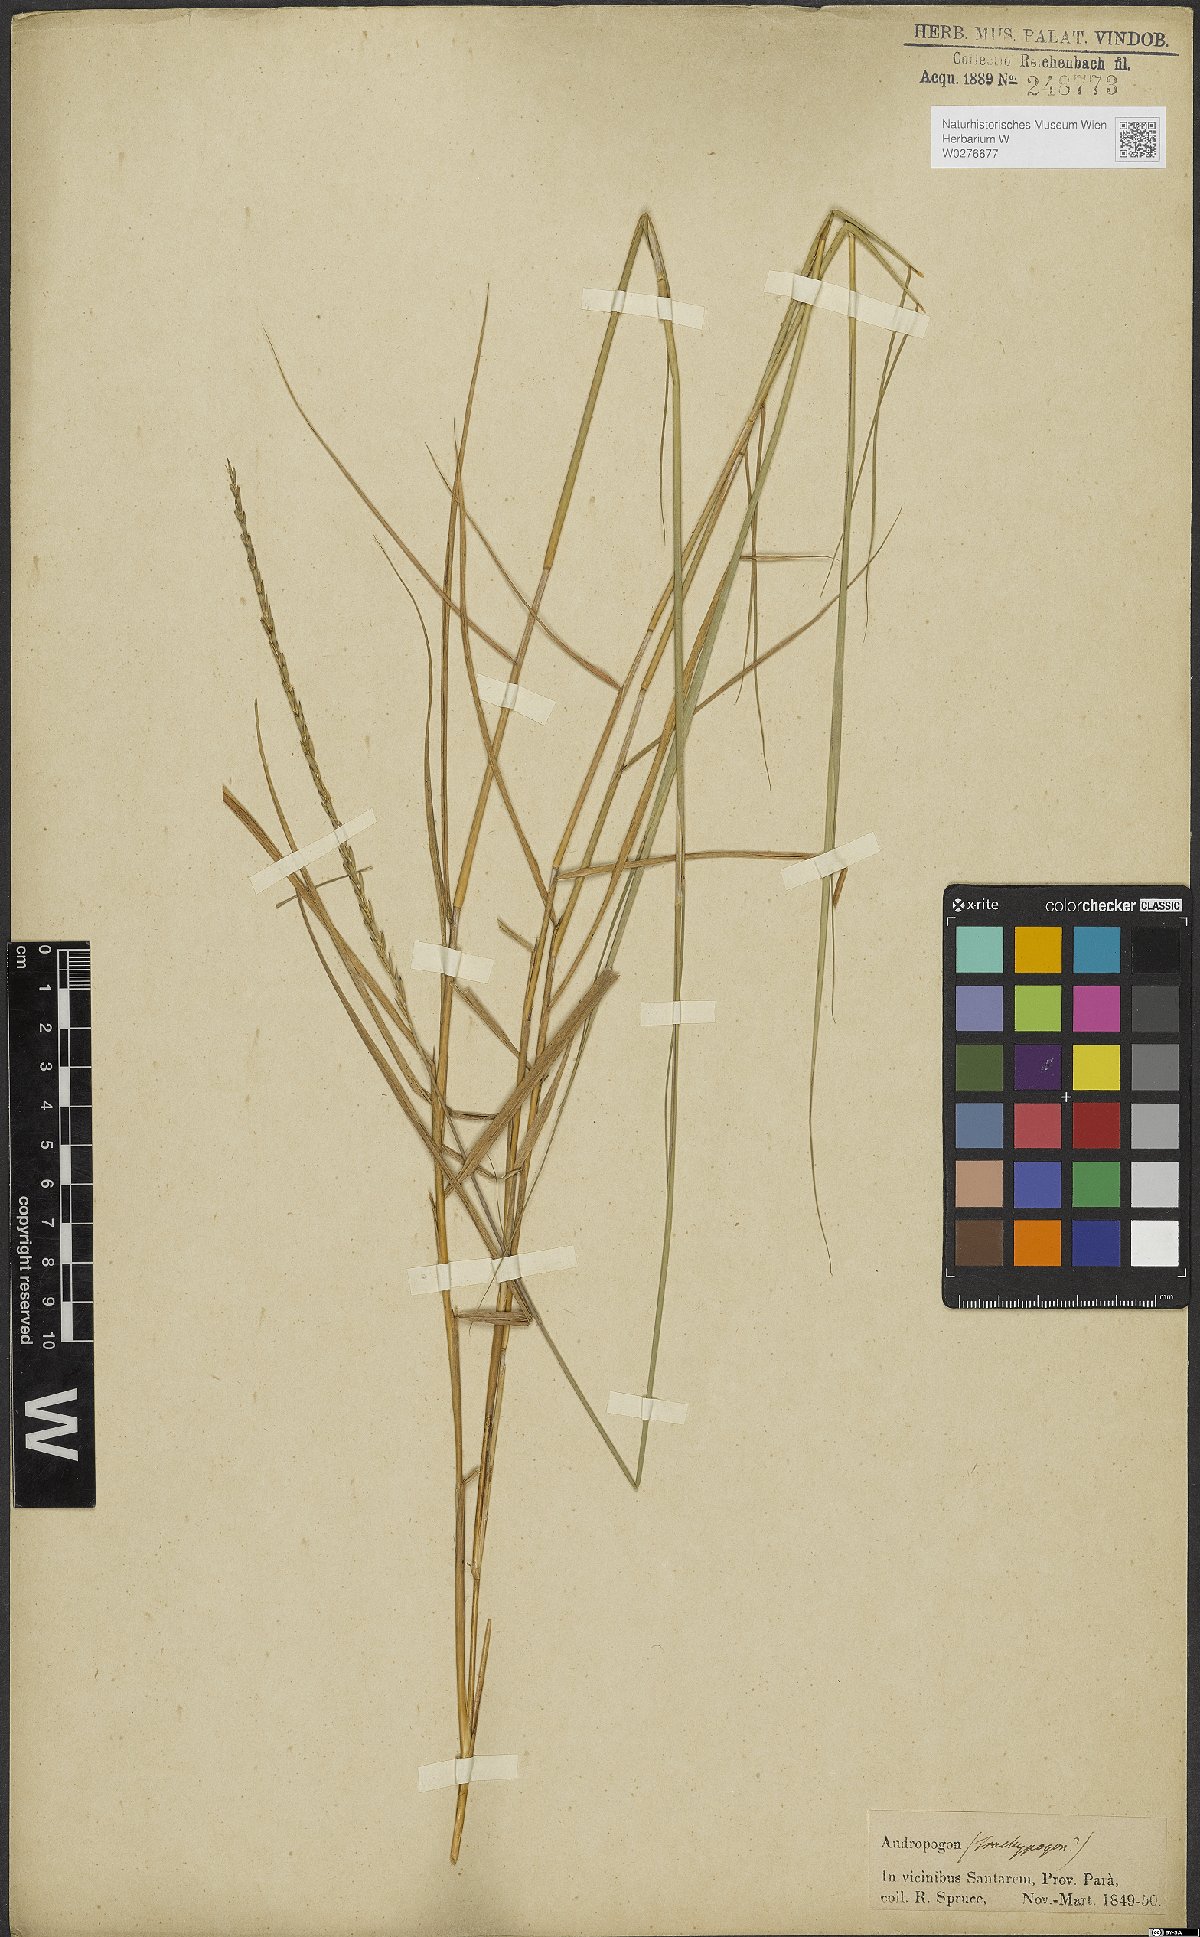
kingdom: Plantae
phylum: Tracheophyta
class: Liliopsida
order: Poales
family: Poaceae
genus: Andropogon
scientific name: Andropogon
